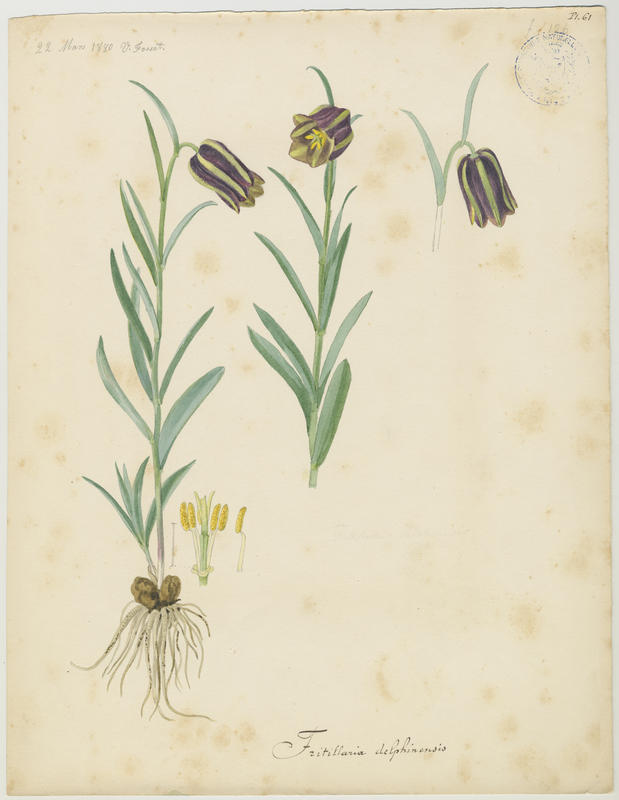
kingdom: Plantae
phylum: Tracheophyta
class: Liliopsida
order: Liliales
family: Liliaceae
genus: Fritillaria
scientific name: Fritillaria tubiformis
